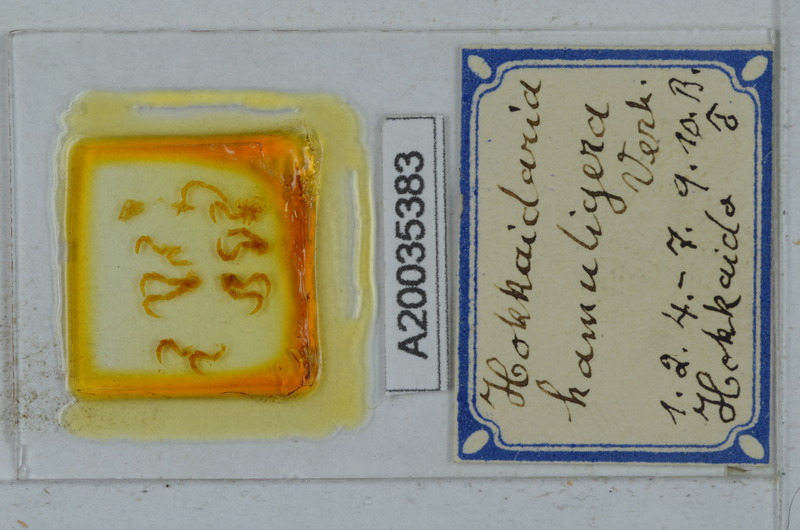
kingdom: Animalia
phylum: Arthropoda
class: Diplopoda
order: Polydesmida
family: Xystodesmidae
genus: Levizonus
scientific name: Levizonus montanus
